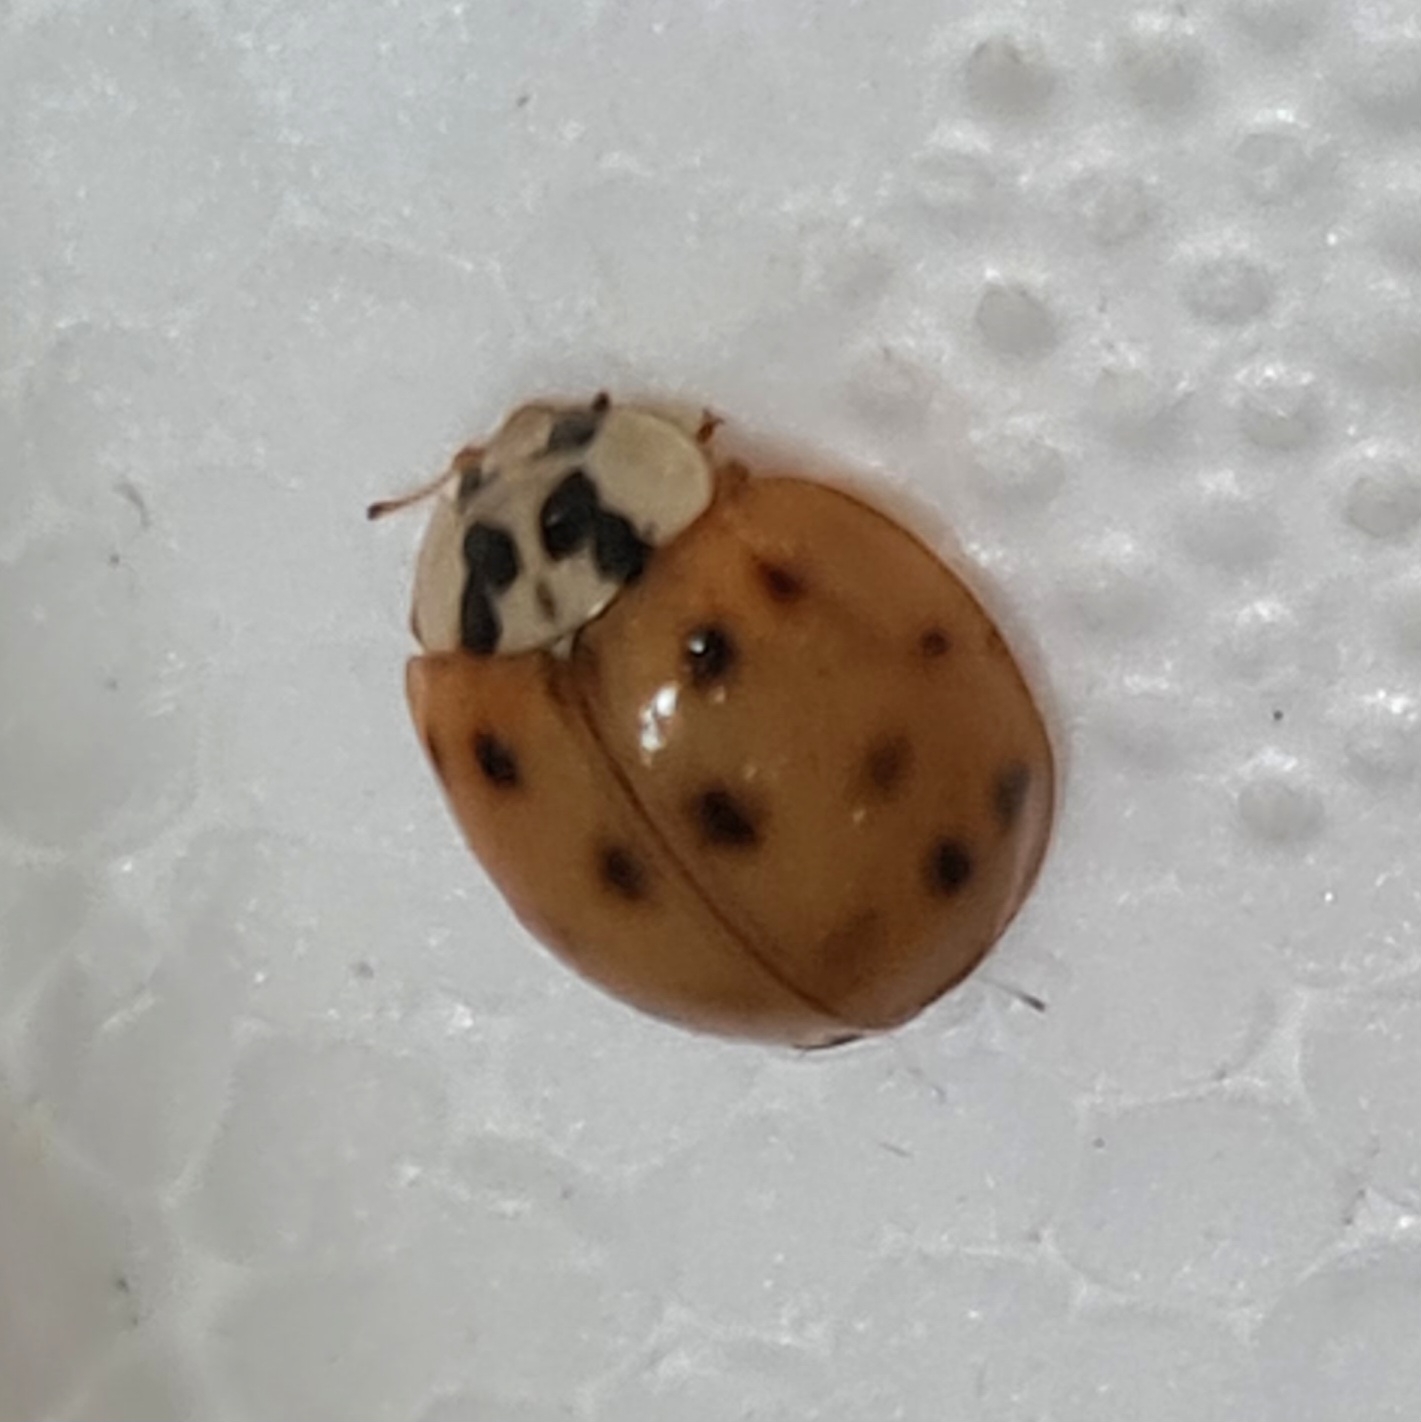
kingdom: Animalia
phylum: Arthropoda
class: Insecta
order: Coleoptera
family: Coccinellidae
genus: Harmonia
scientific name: Harmonia axyridis
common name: Harlekinmariehøne
